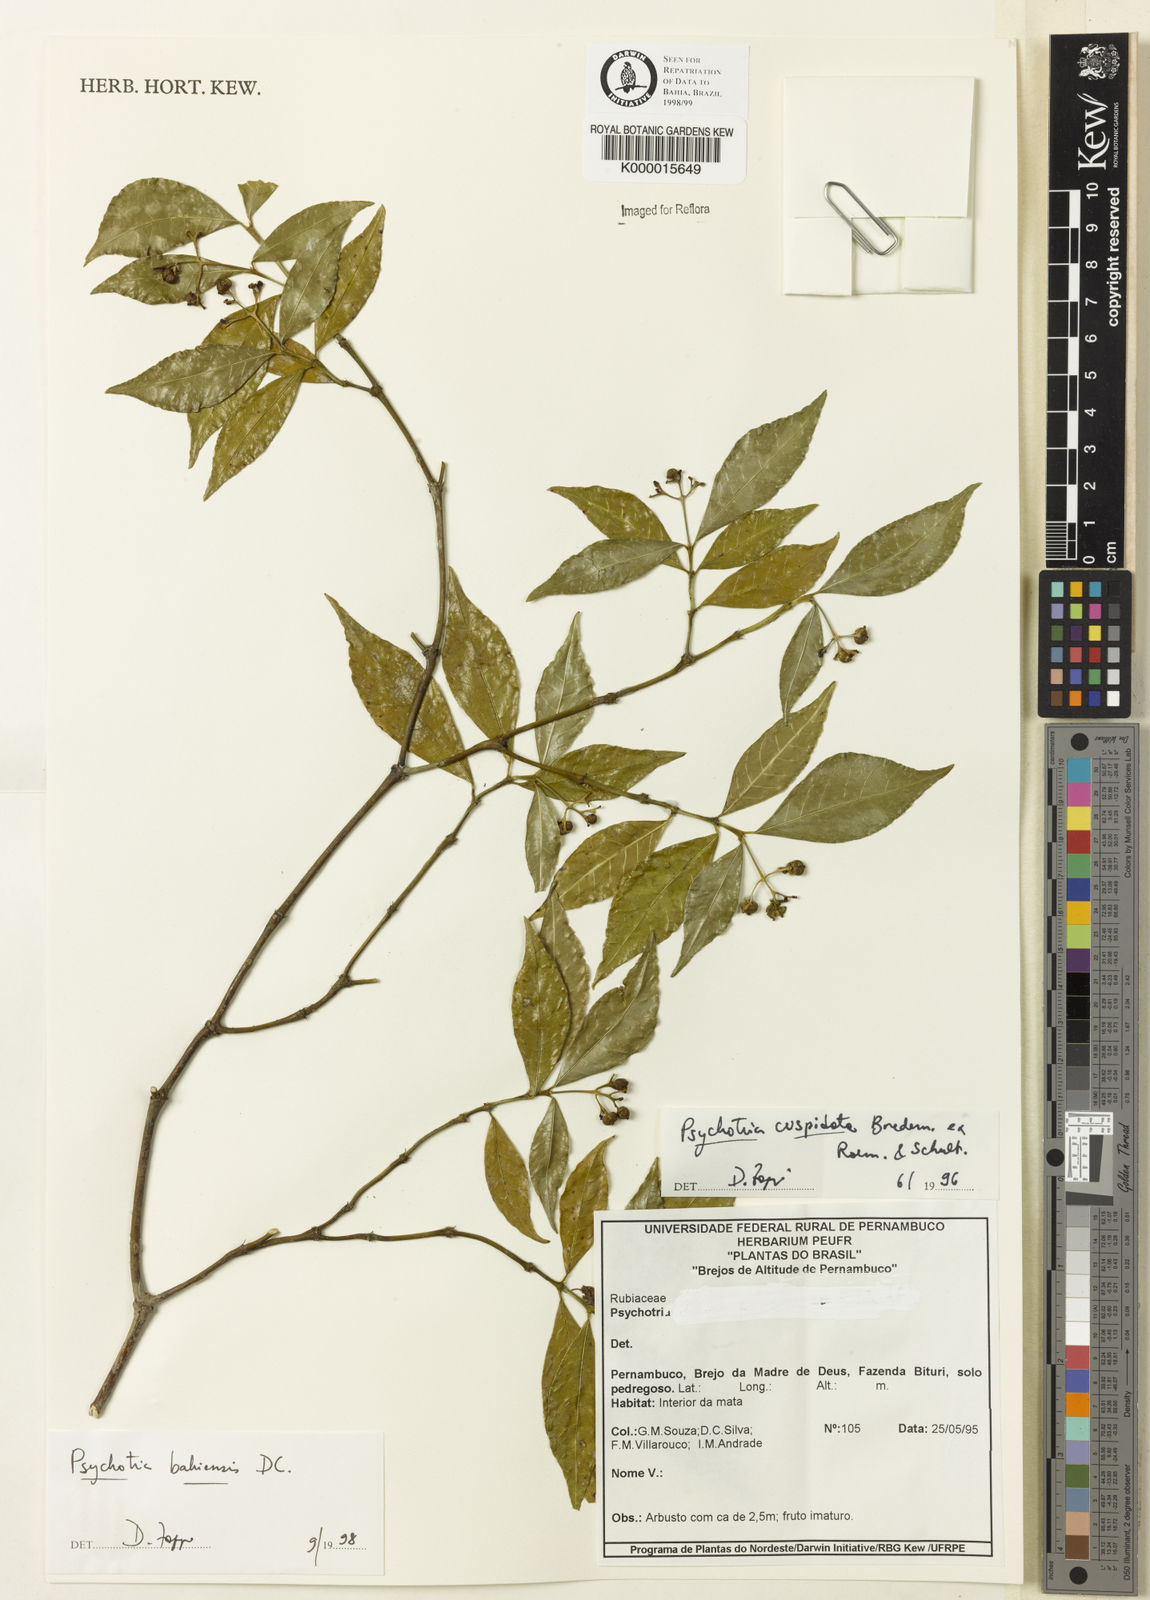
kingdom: Plantae
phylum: Tracheophyta
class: Magnoliopsida
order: Gentianales
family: Rubiaceae
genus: Psychotria
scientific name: Psychotria bahiensis
